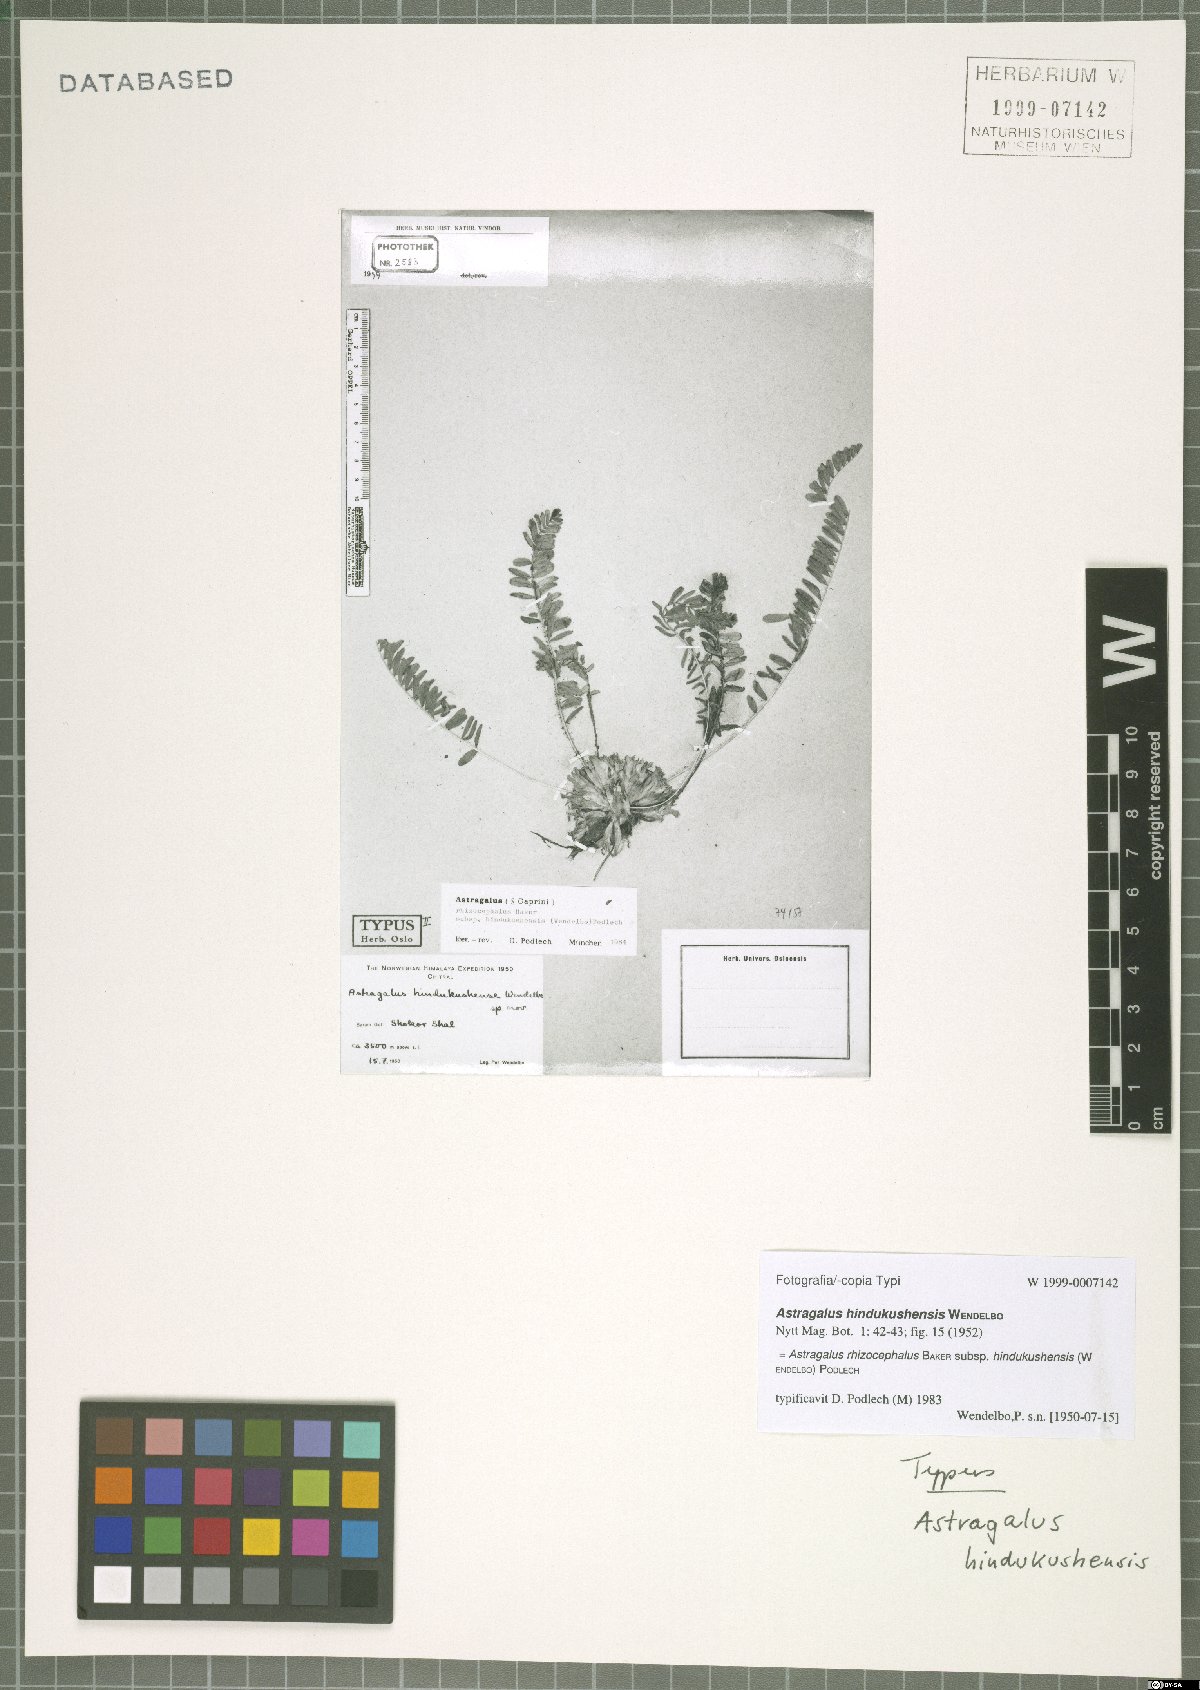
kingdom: Plantae
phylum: Tracheophyta
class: Magnoliopsida
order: Fabales
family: Fabaceae
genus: Astragalus
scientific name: Astragalus rhizocephalus
